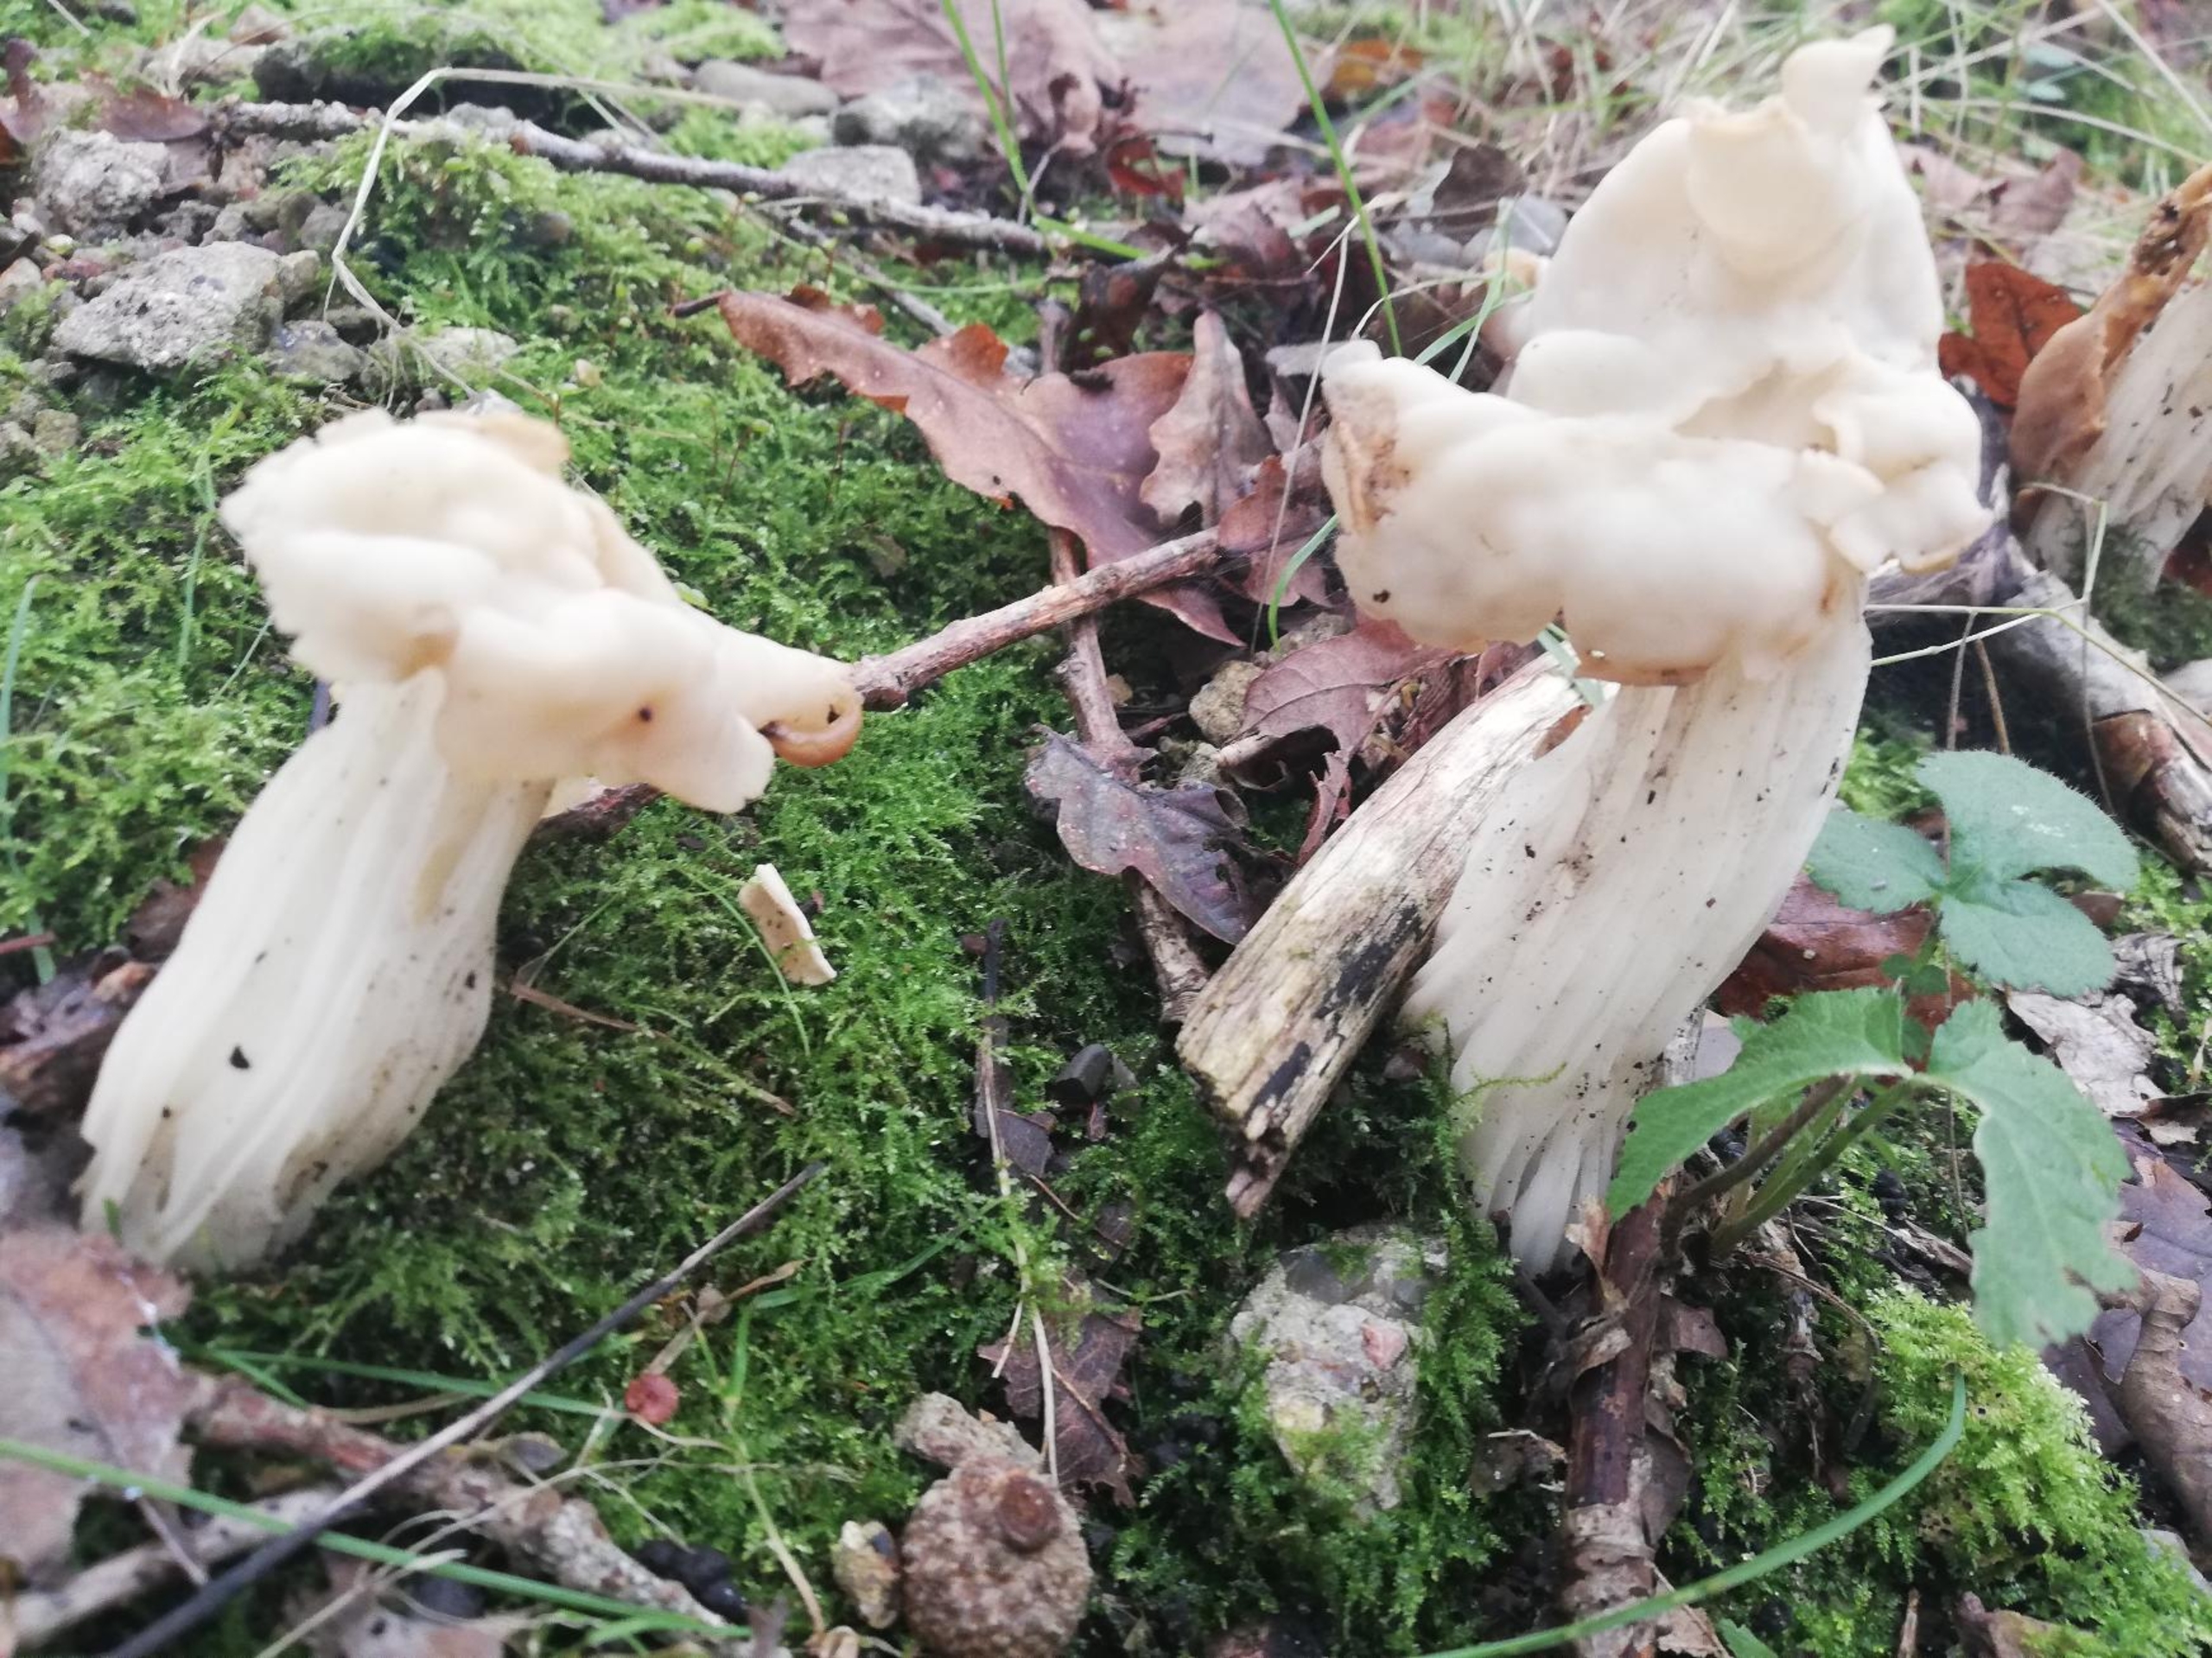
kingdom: Fungi
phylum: Ascomycota
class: Pezizomycetes
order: Pezizales
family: Helvellaceae
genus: Helvella
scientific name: Helvella crispa
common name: Kruset foldhat
